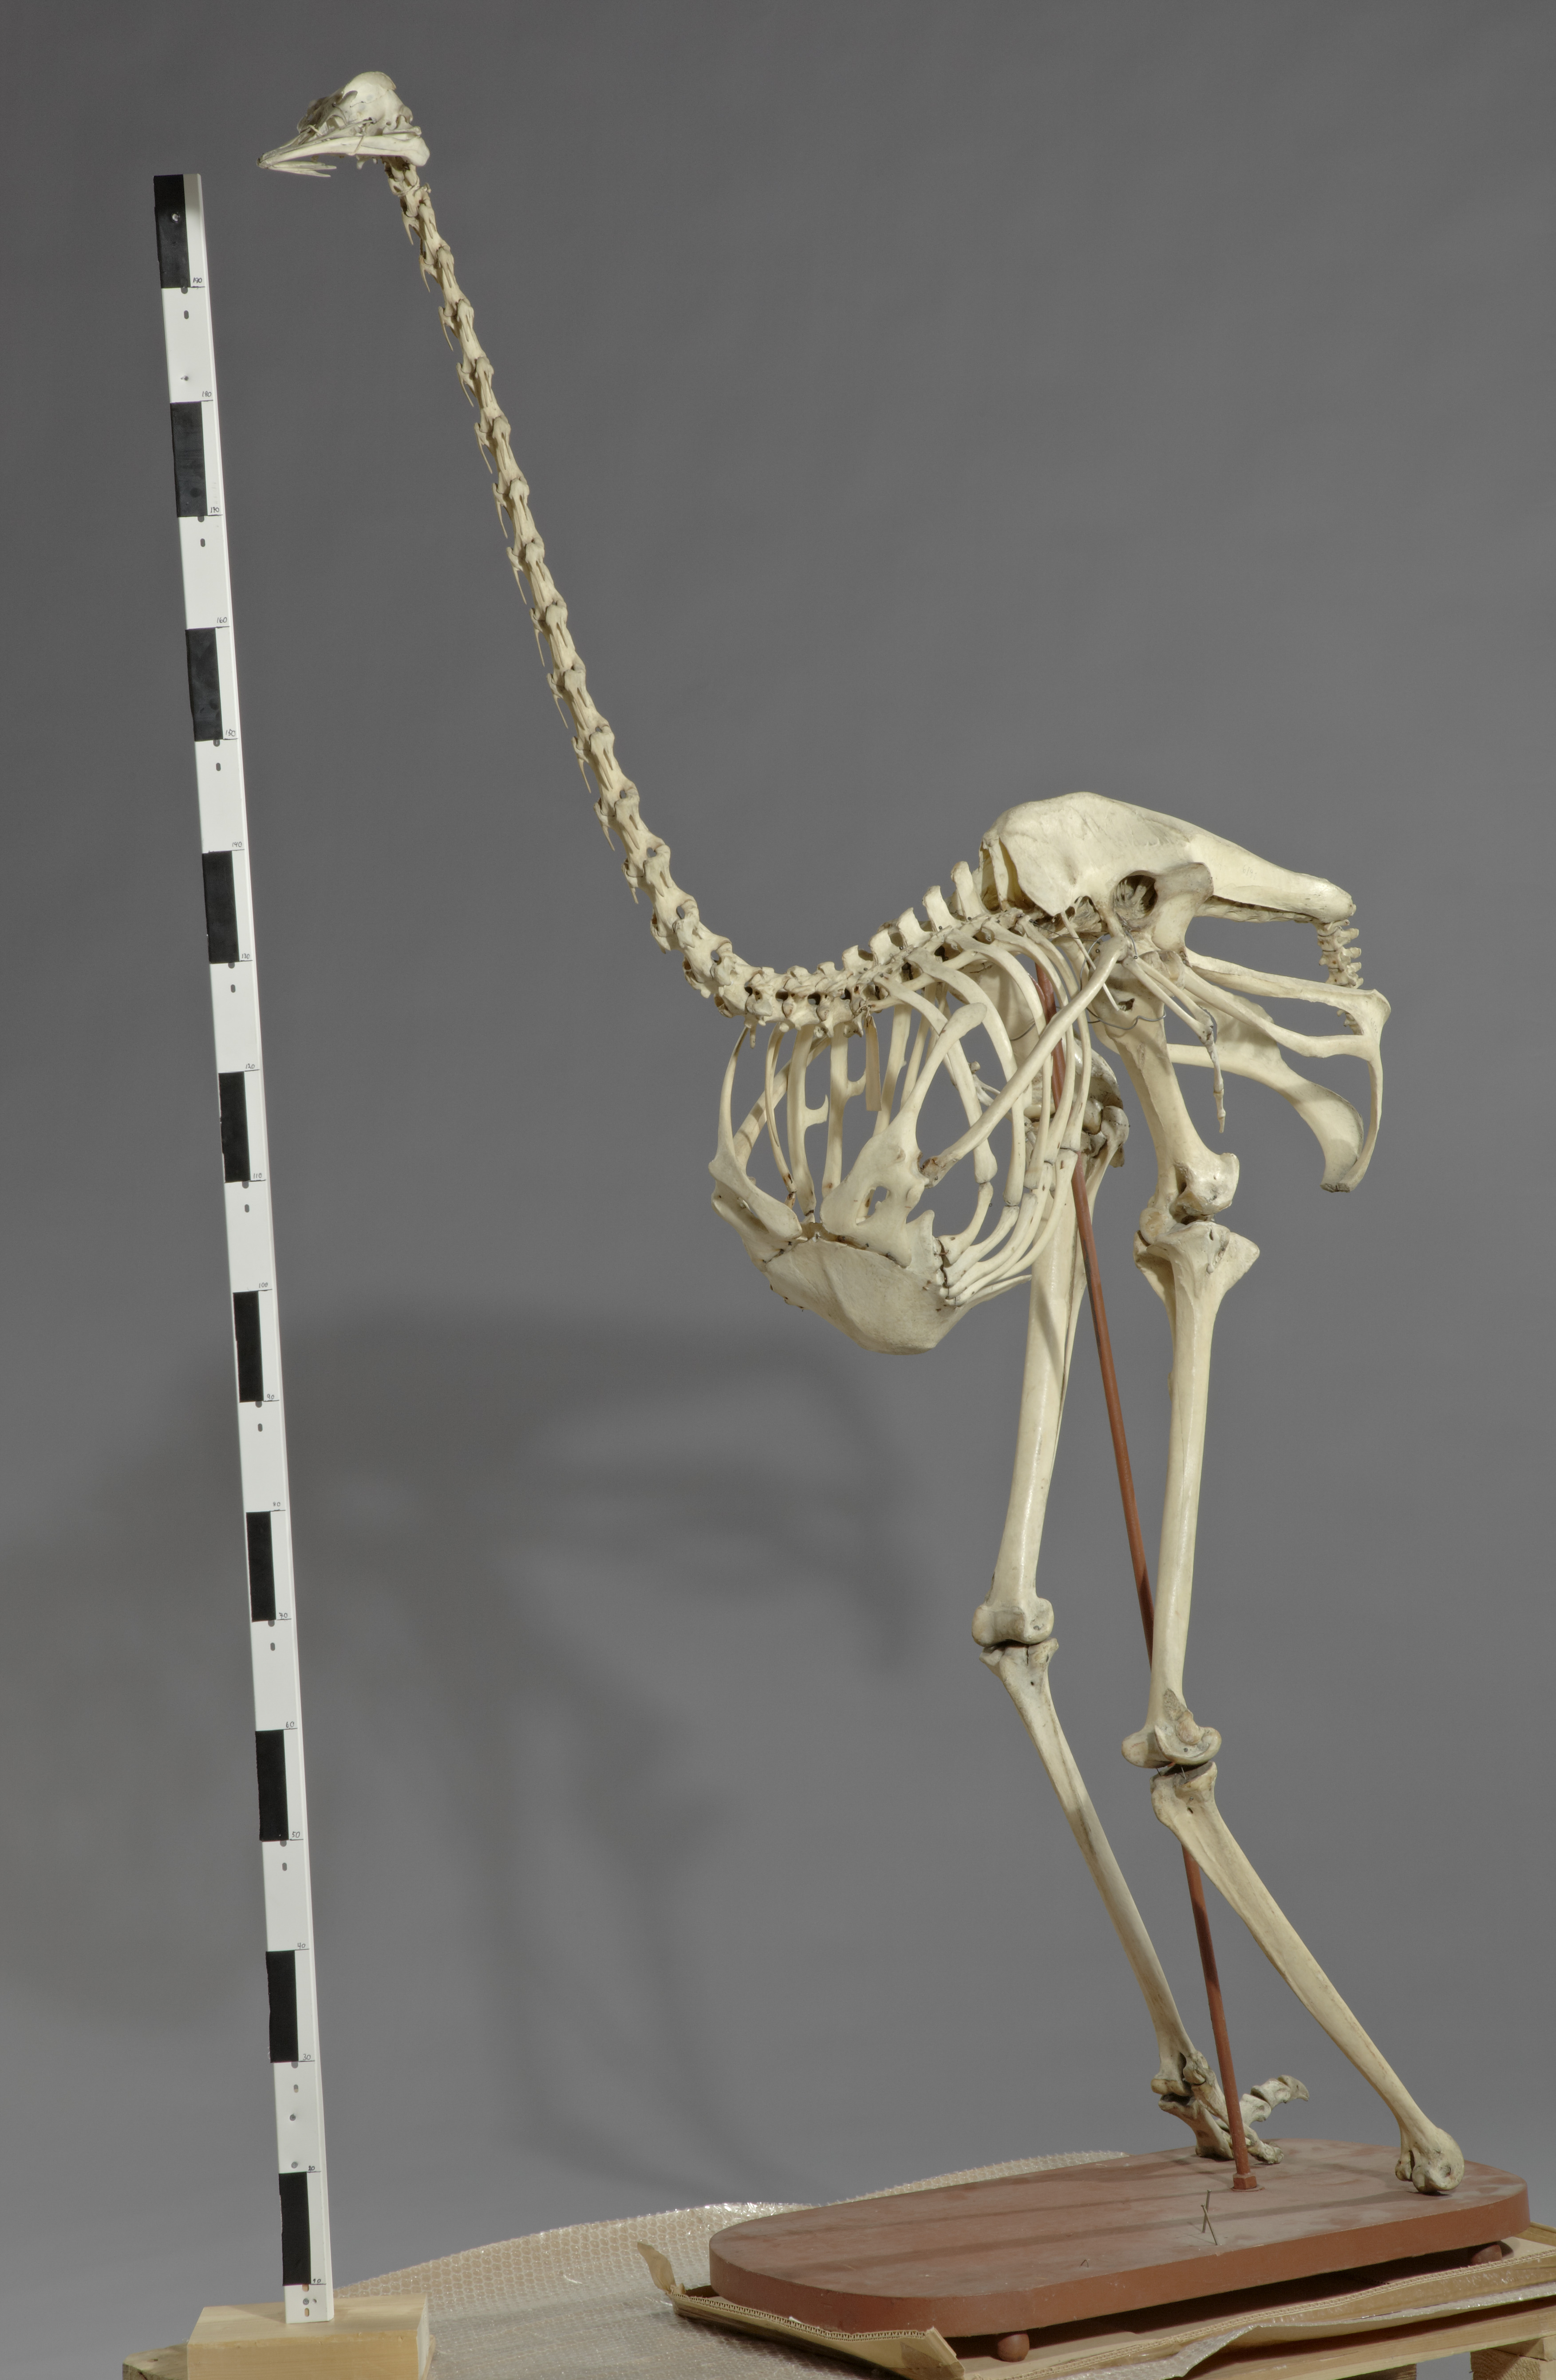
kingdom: Animalia
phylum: Chordata
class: Aves
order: Struthioniformes
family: Struthionidae
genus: Struthio
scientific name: Struthio camelus
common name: Common ostrich
